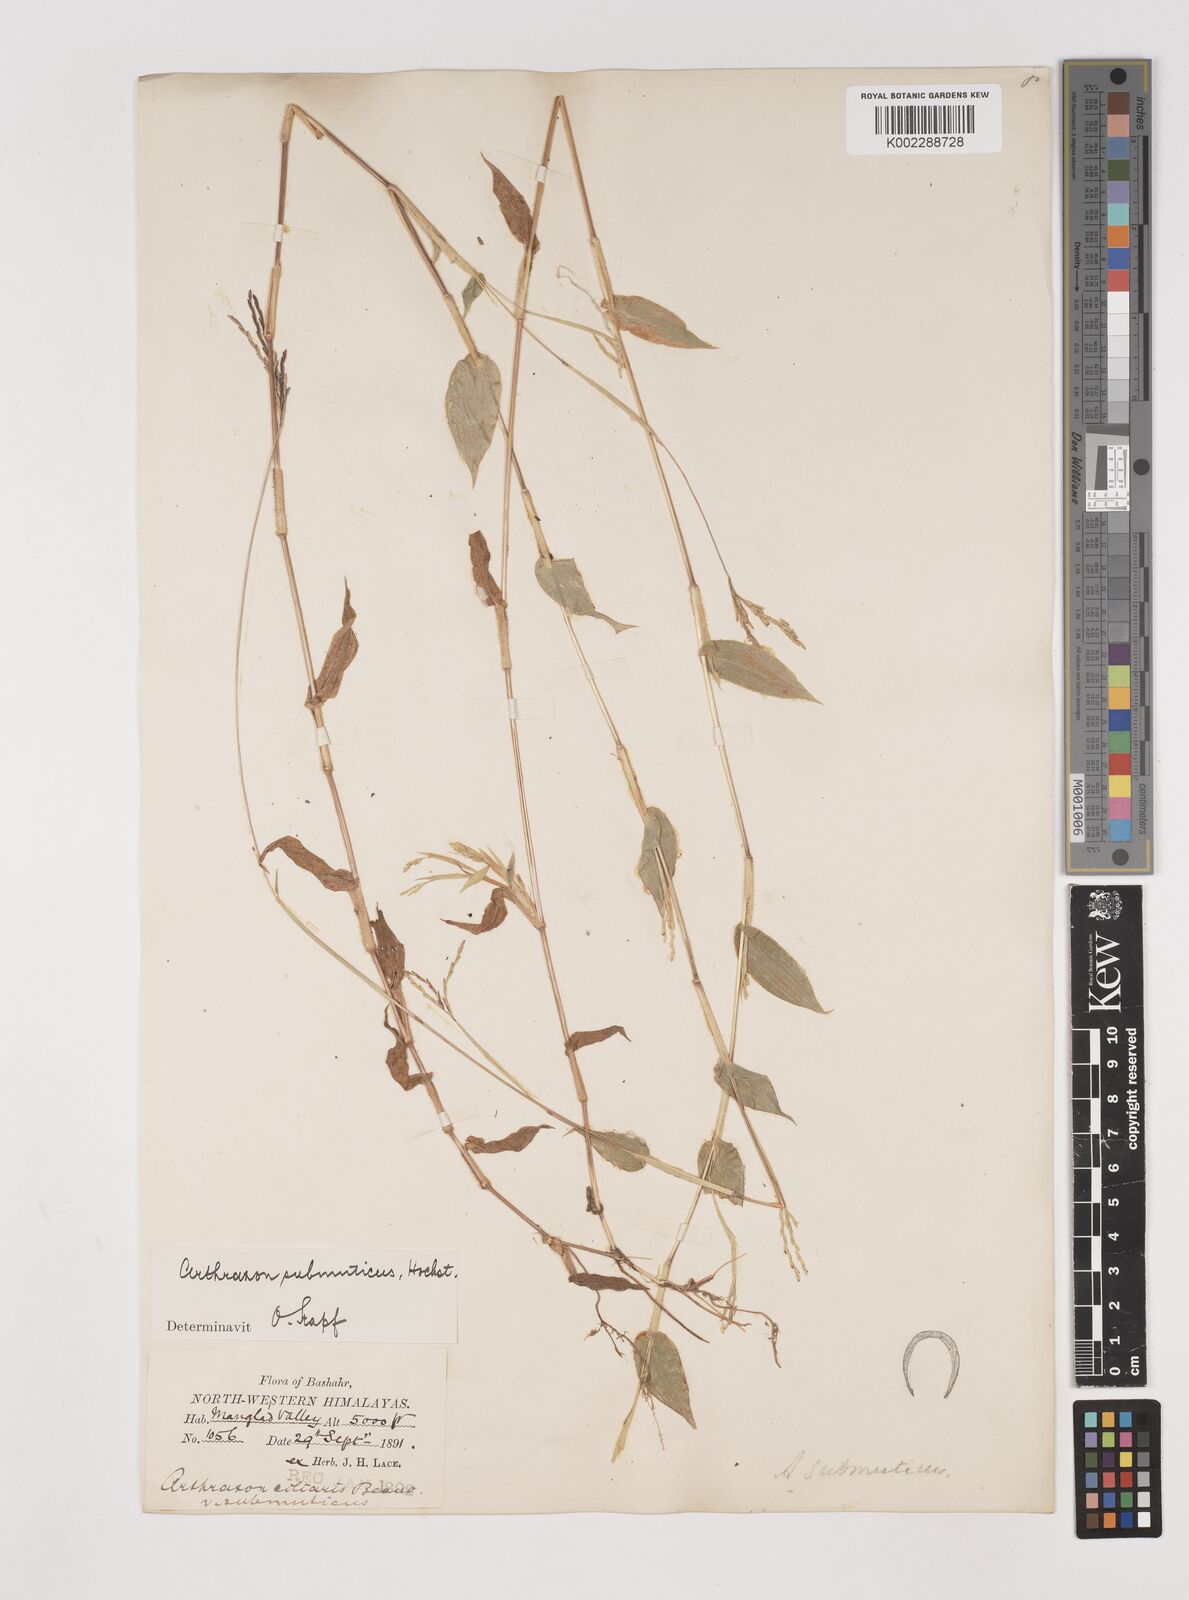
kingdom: Plantae
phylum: Tracheophyta
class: Liliopsida
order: Poales
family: Poaceae
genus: Arthraxon
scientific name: Arthraxon submuticus
